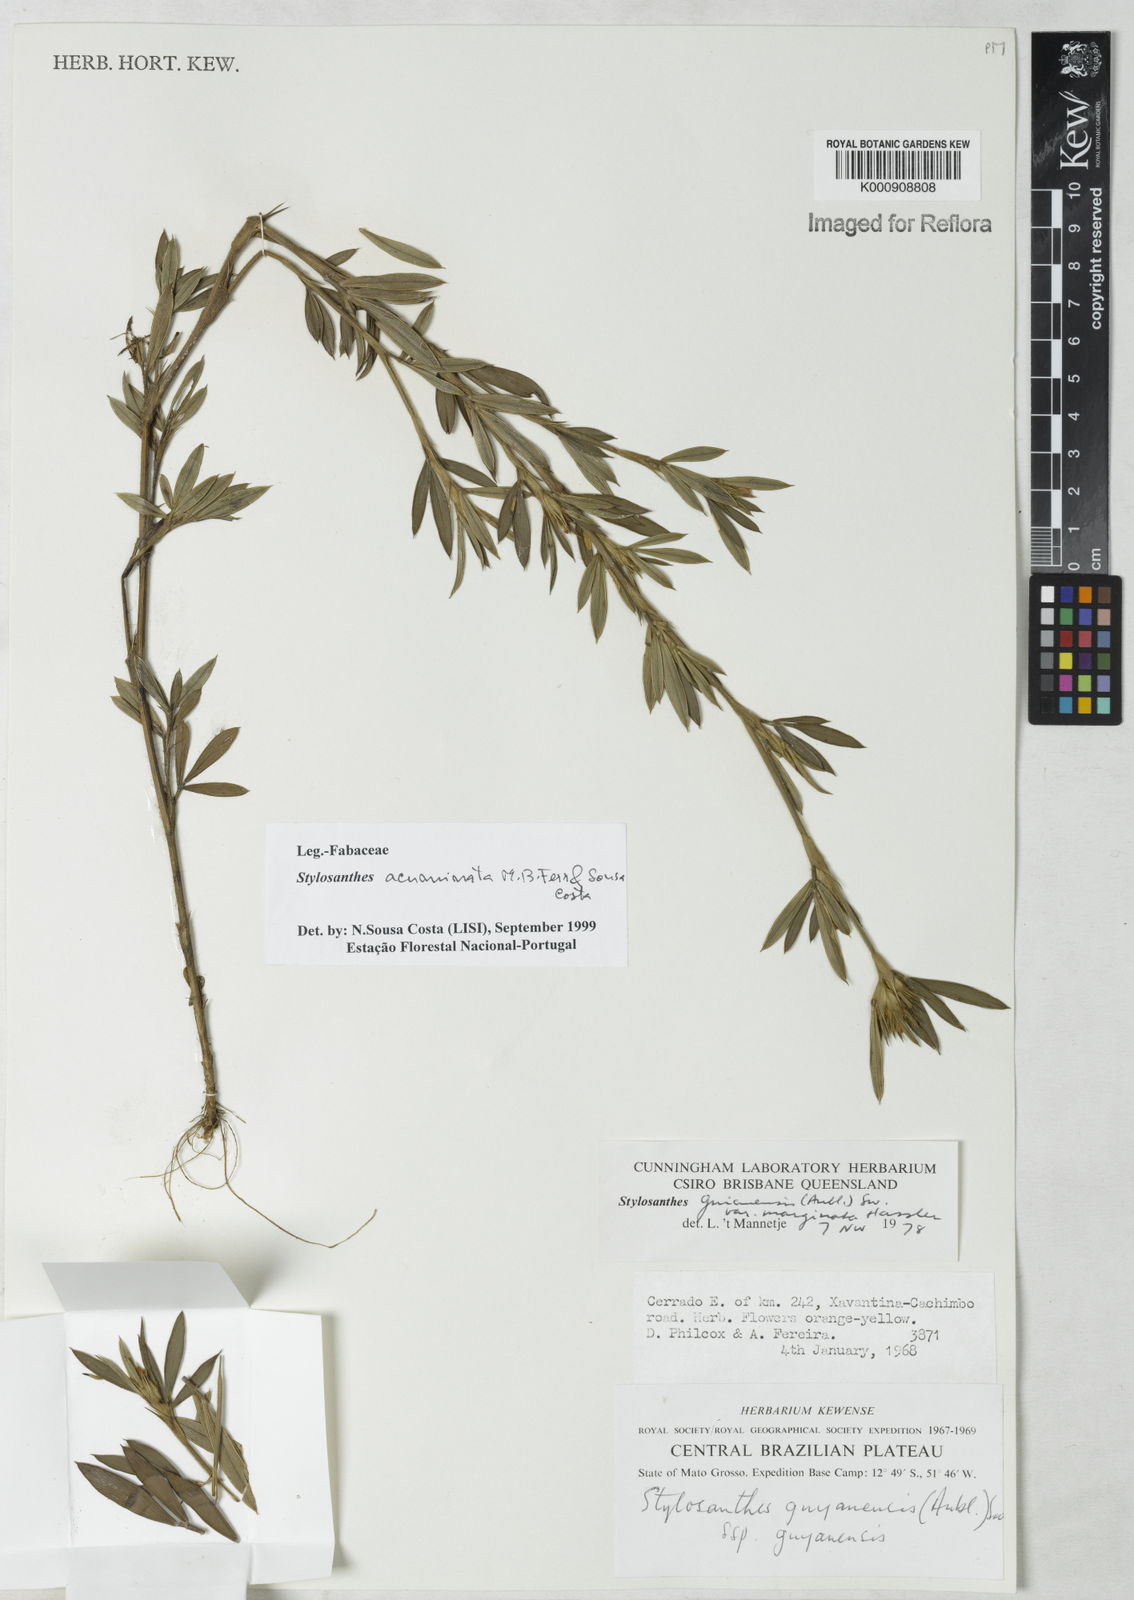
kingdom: Plantae
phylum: Tracheophyta
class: Magnoliopsida
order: Fabales
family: Fabaceae
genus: Stylosanthes
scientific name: Stylosanthes guianensis
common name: Pencil flower
